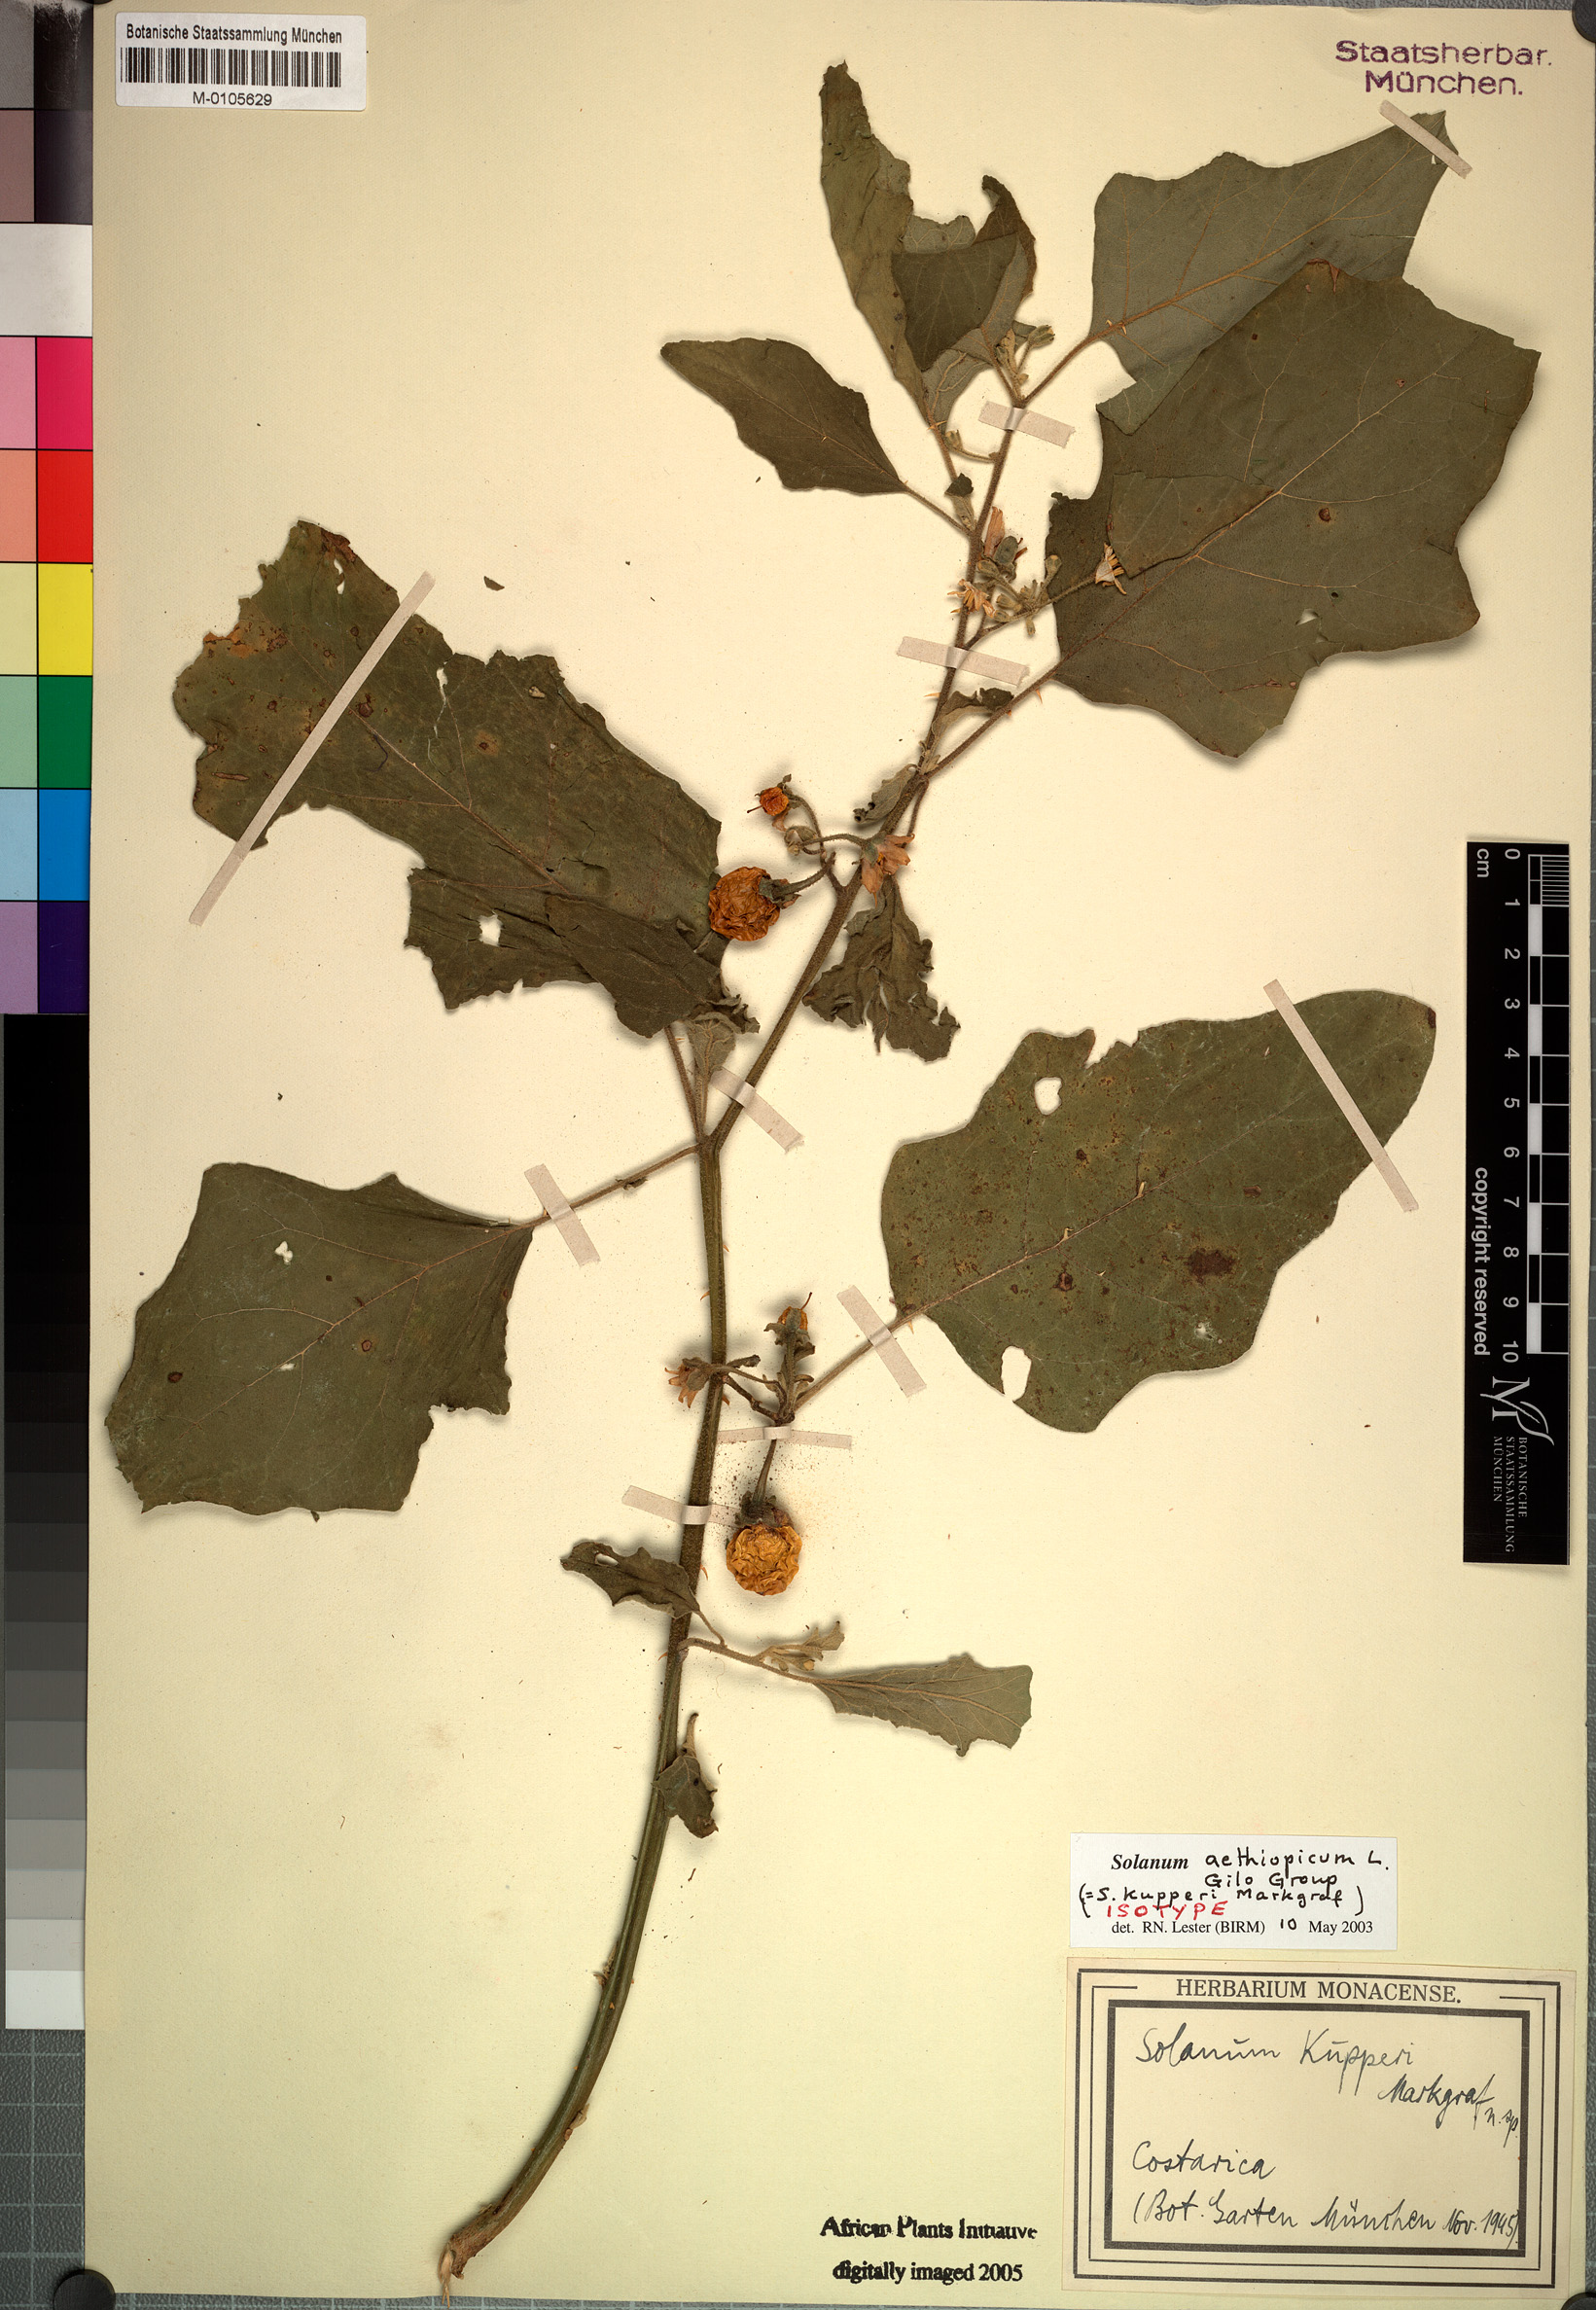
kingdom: Plantae
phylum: Tracheophyta
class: Magnoliopsida
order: Solanales
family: Solanaceae
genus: Solanum
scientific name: Solanum aethiopicum
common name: Gilo
